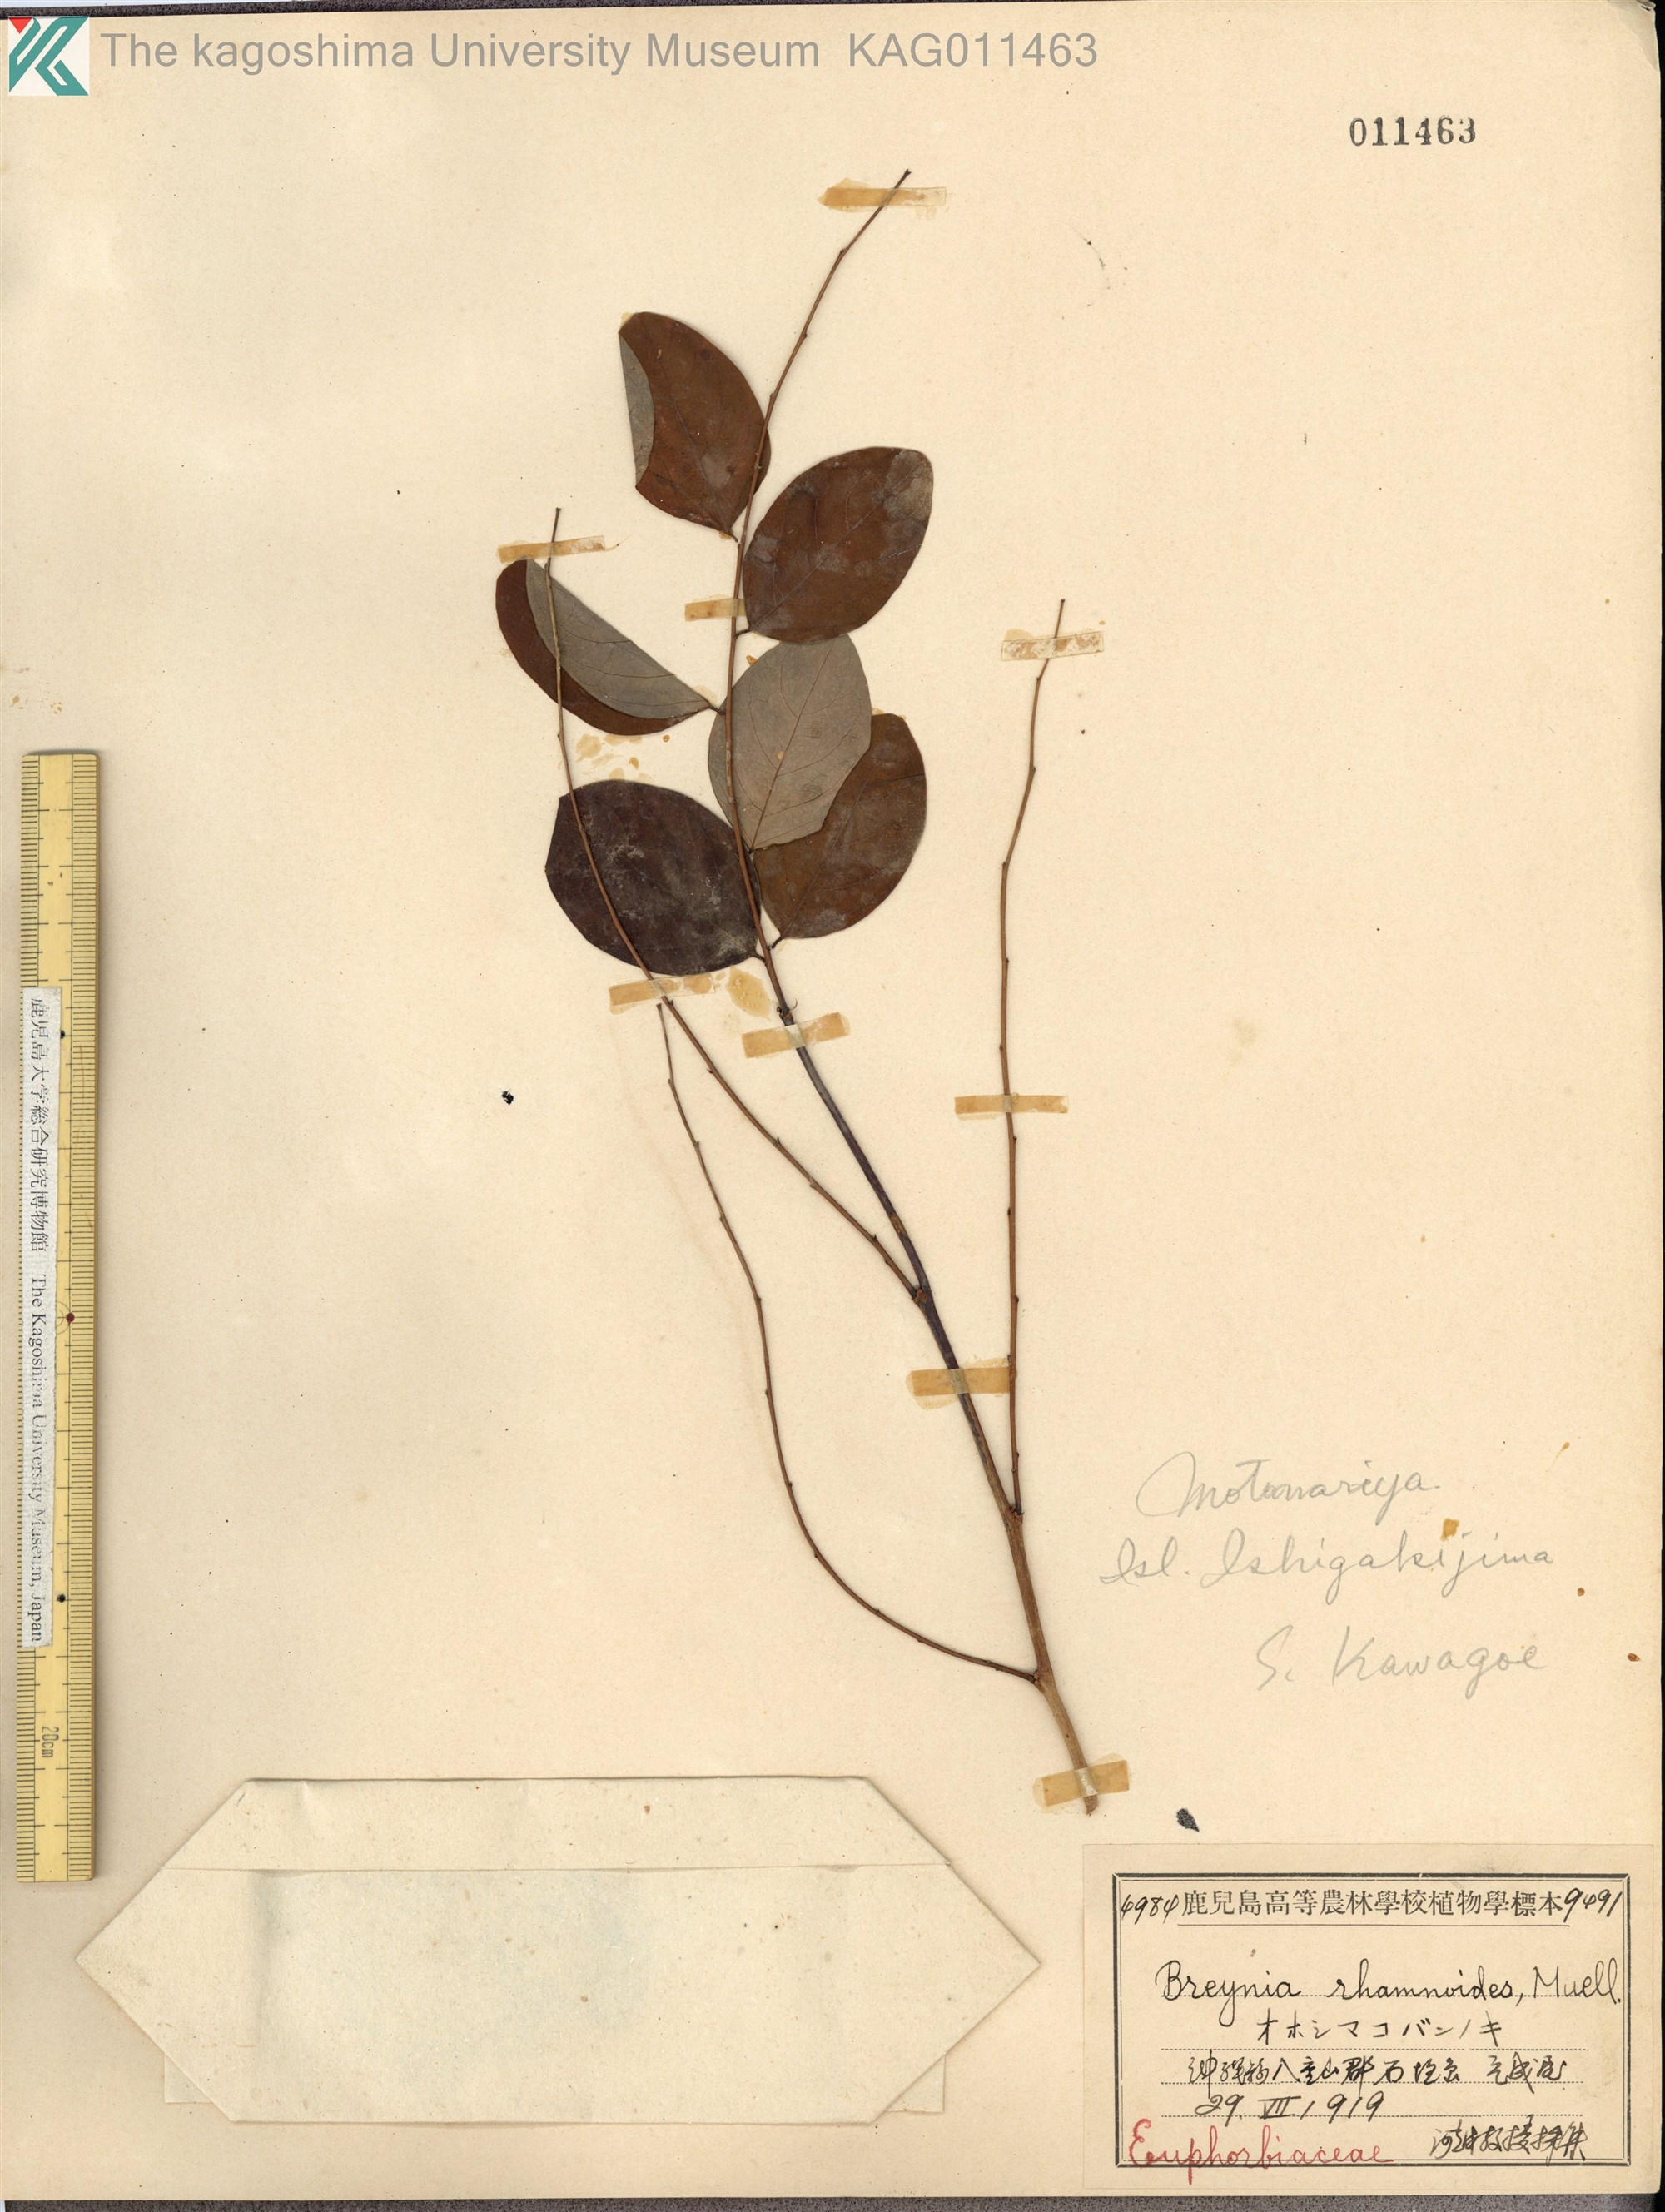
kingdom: Plantae
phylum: Tracheophyta
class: Magnoliopsida
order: Malpighiales
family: Phyllanthaceae
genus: Breynia
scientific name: Breynia vitis-idaea
